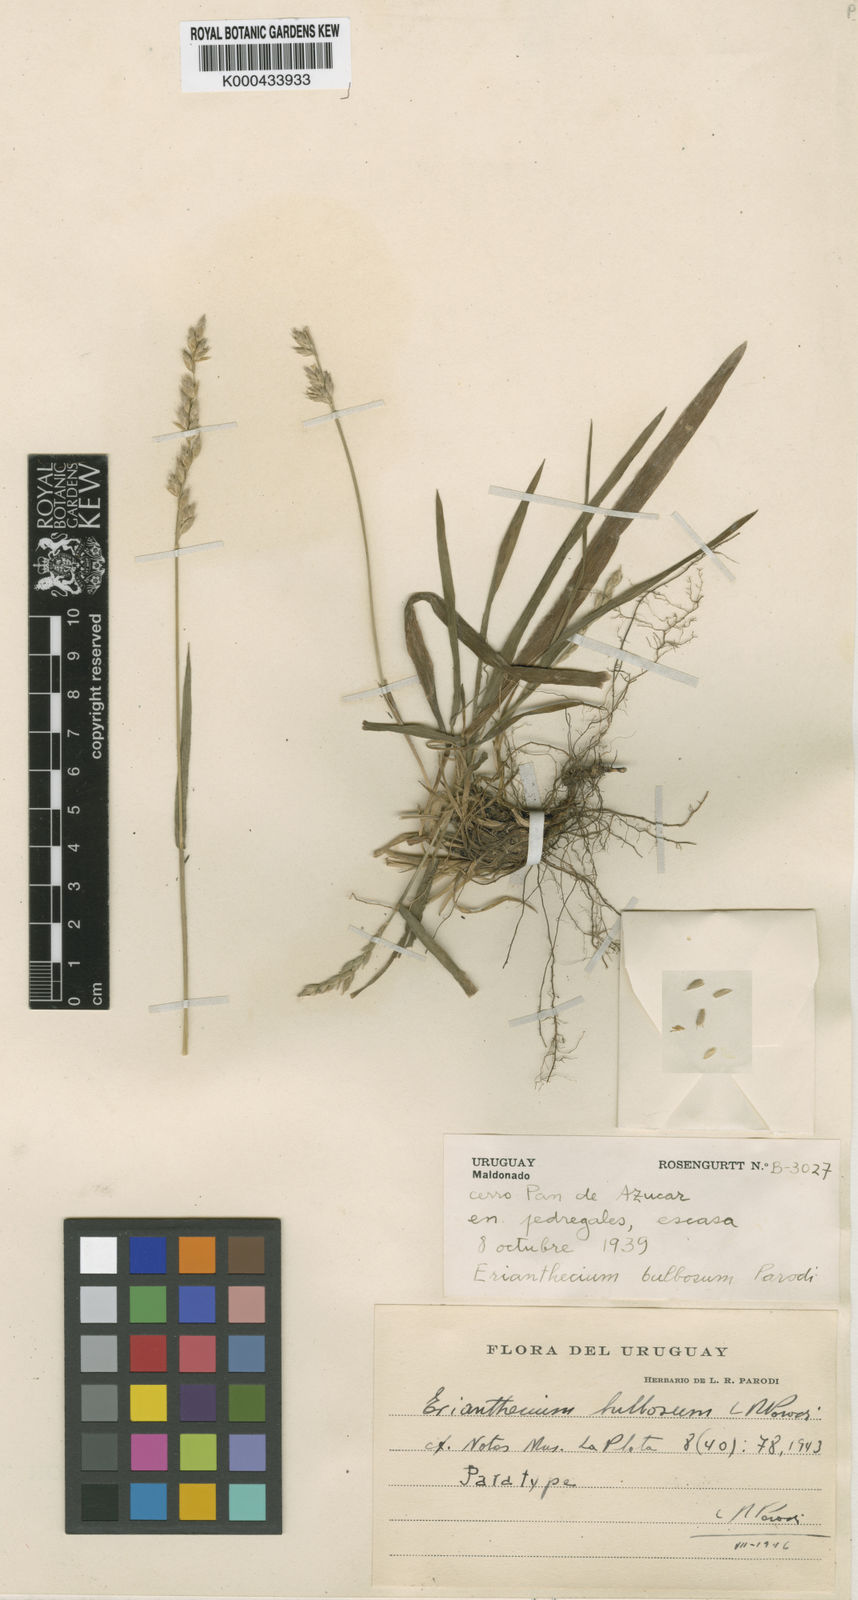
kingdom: Plantae
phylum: Tracheophyta
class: Liliopsida
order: Poales
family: Poaceae
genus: Erianthecium
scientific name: Erianthecium bulbosum
